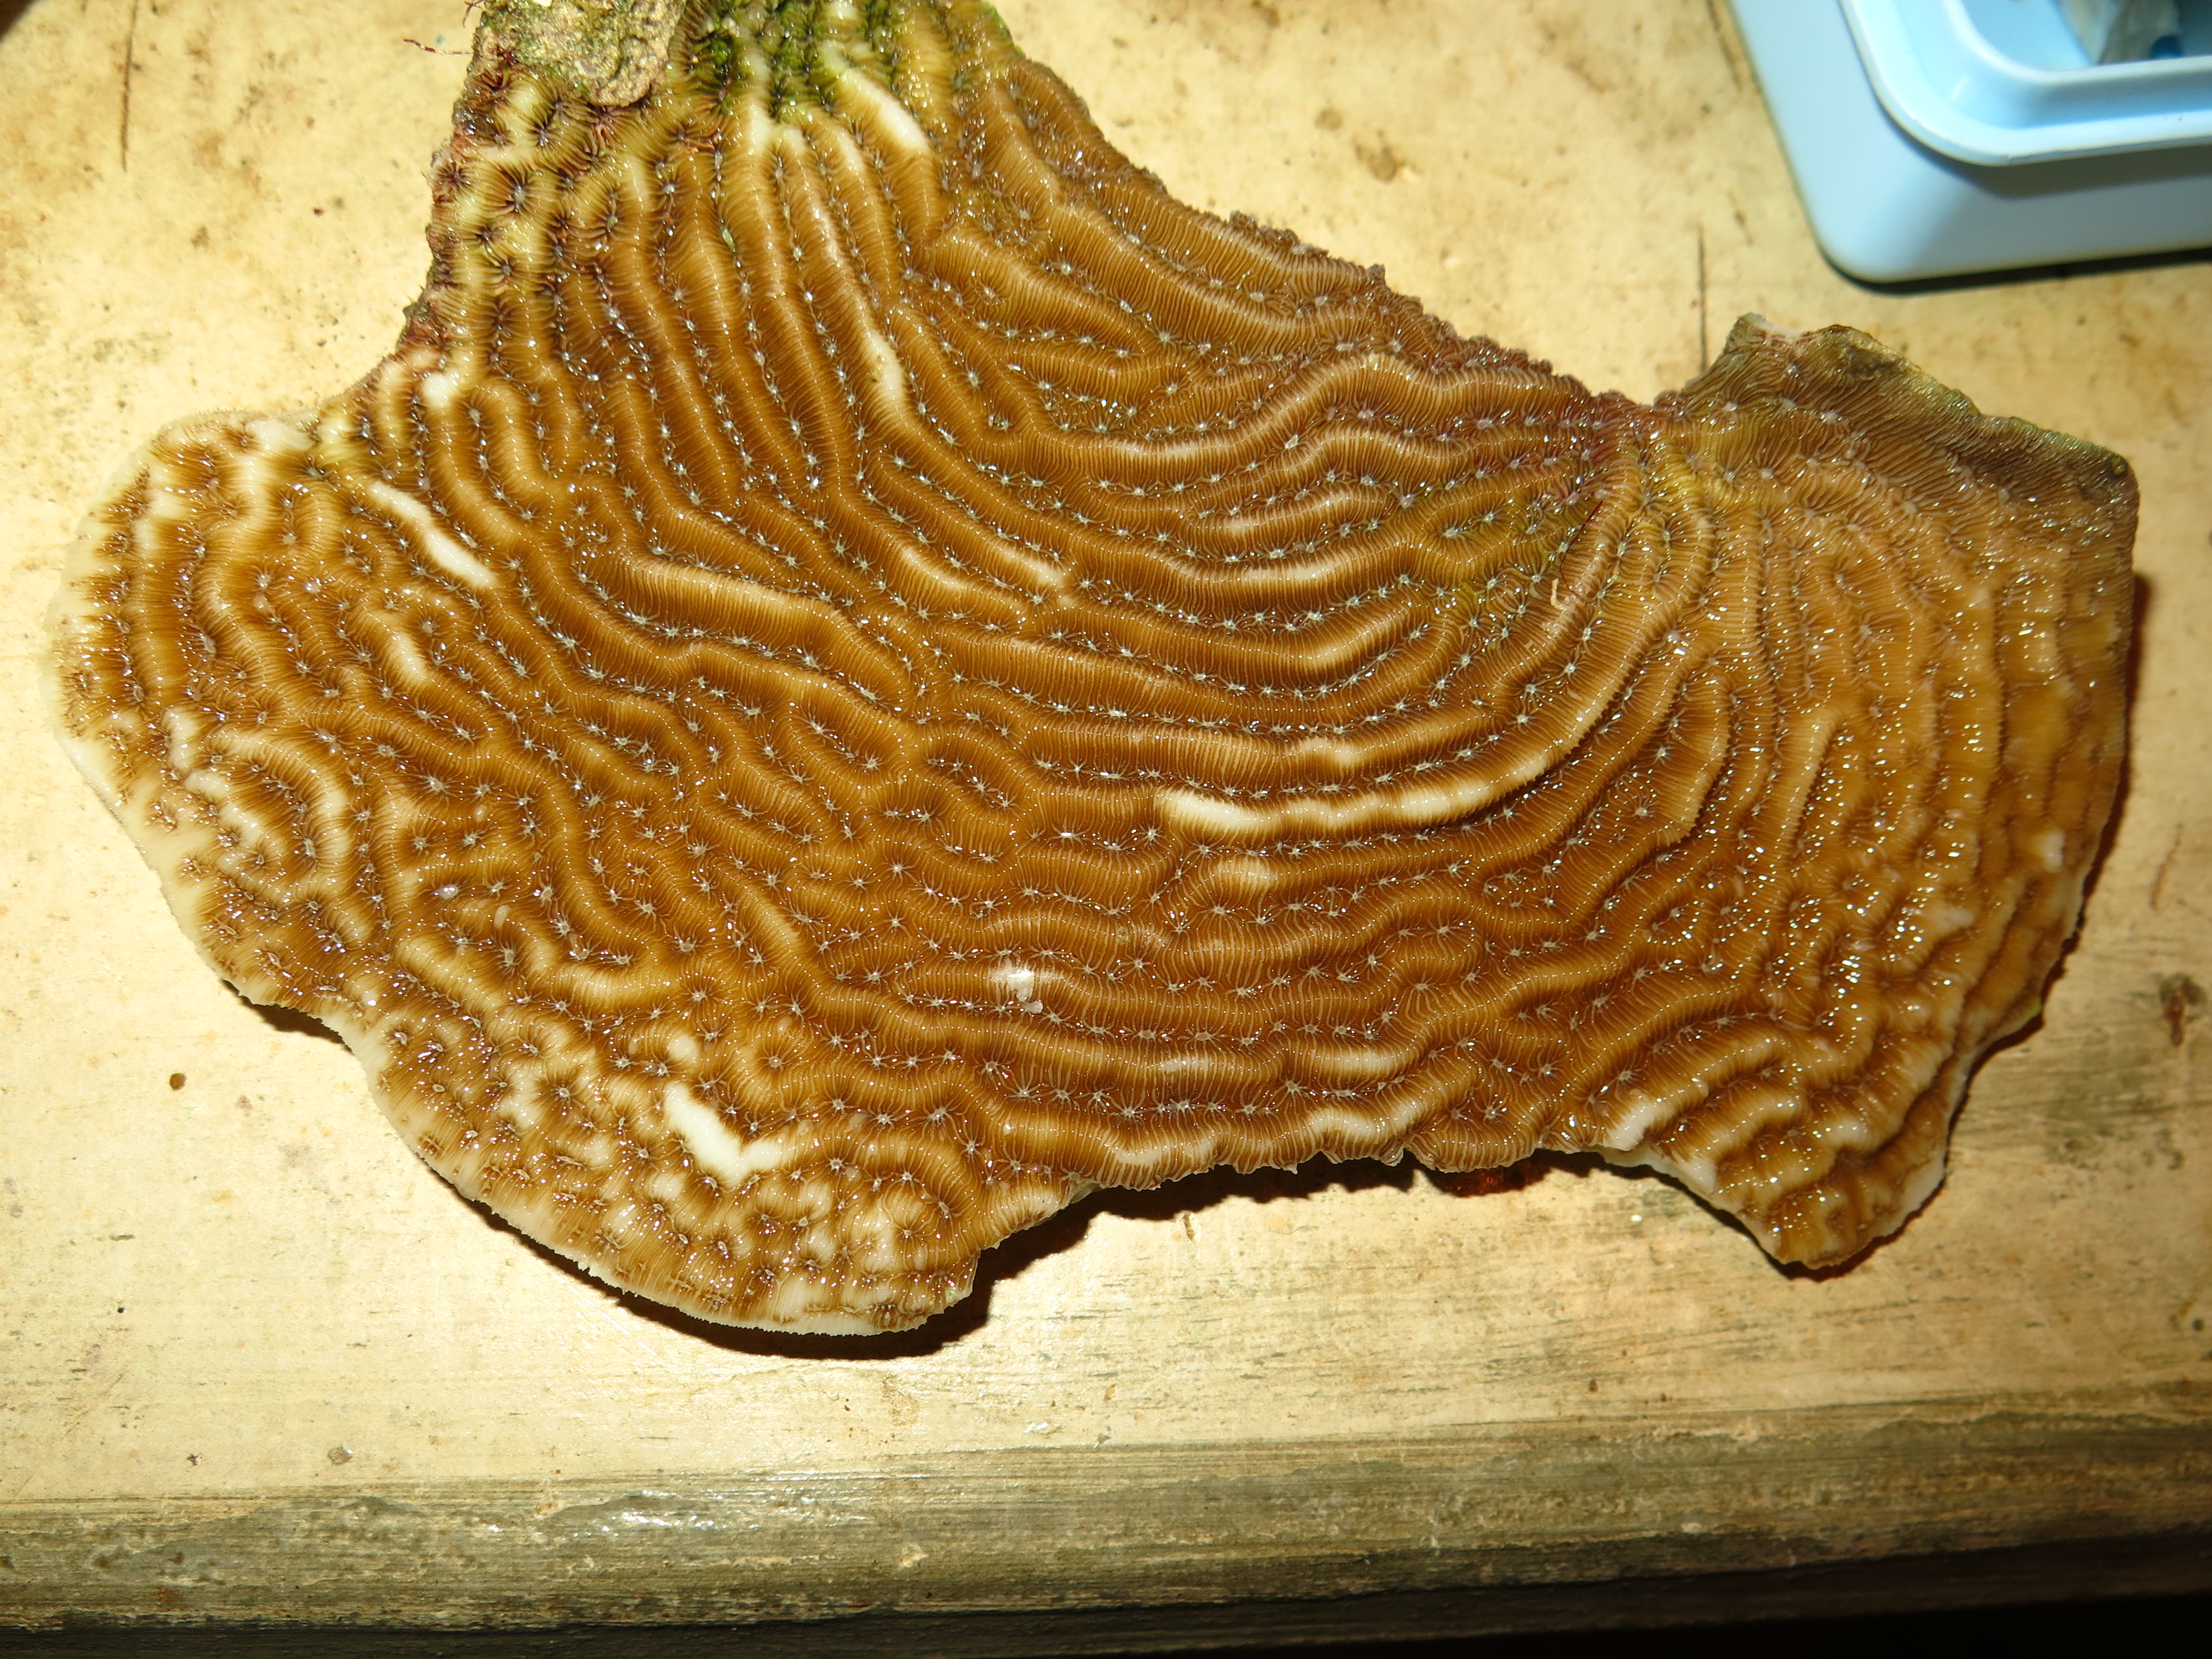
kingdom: Animalia
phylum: Cnidaria
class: Anthozoa
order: Scleractinia
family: Agariciidae
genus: Agaricia
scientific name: Agaricia lamarcki
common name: Lamarck's sheet coral
